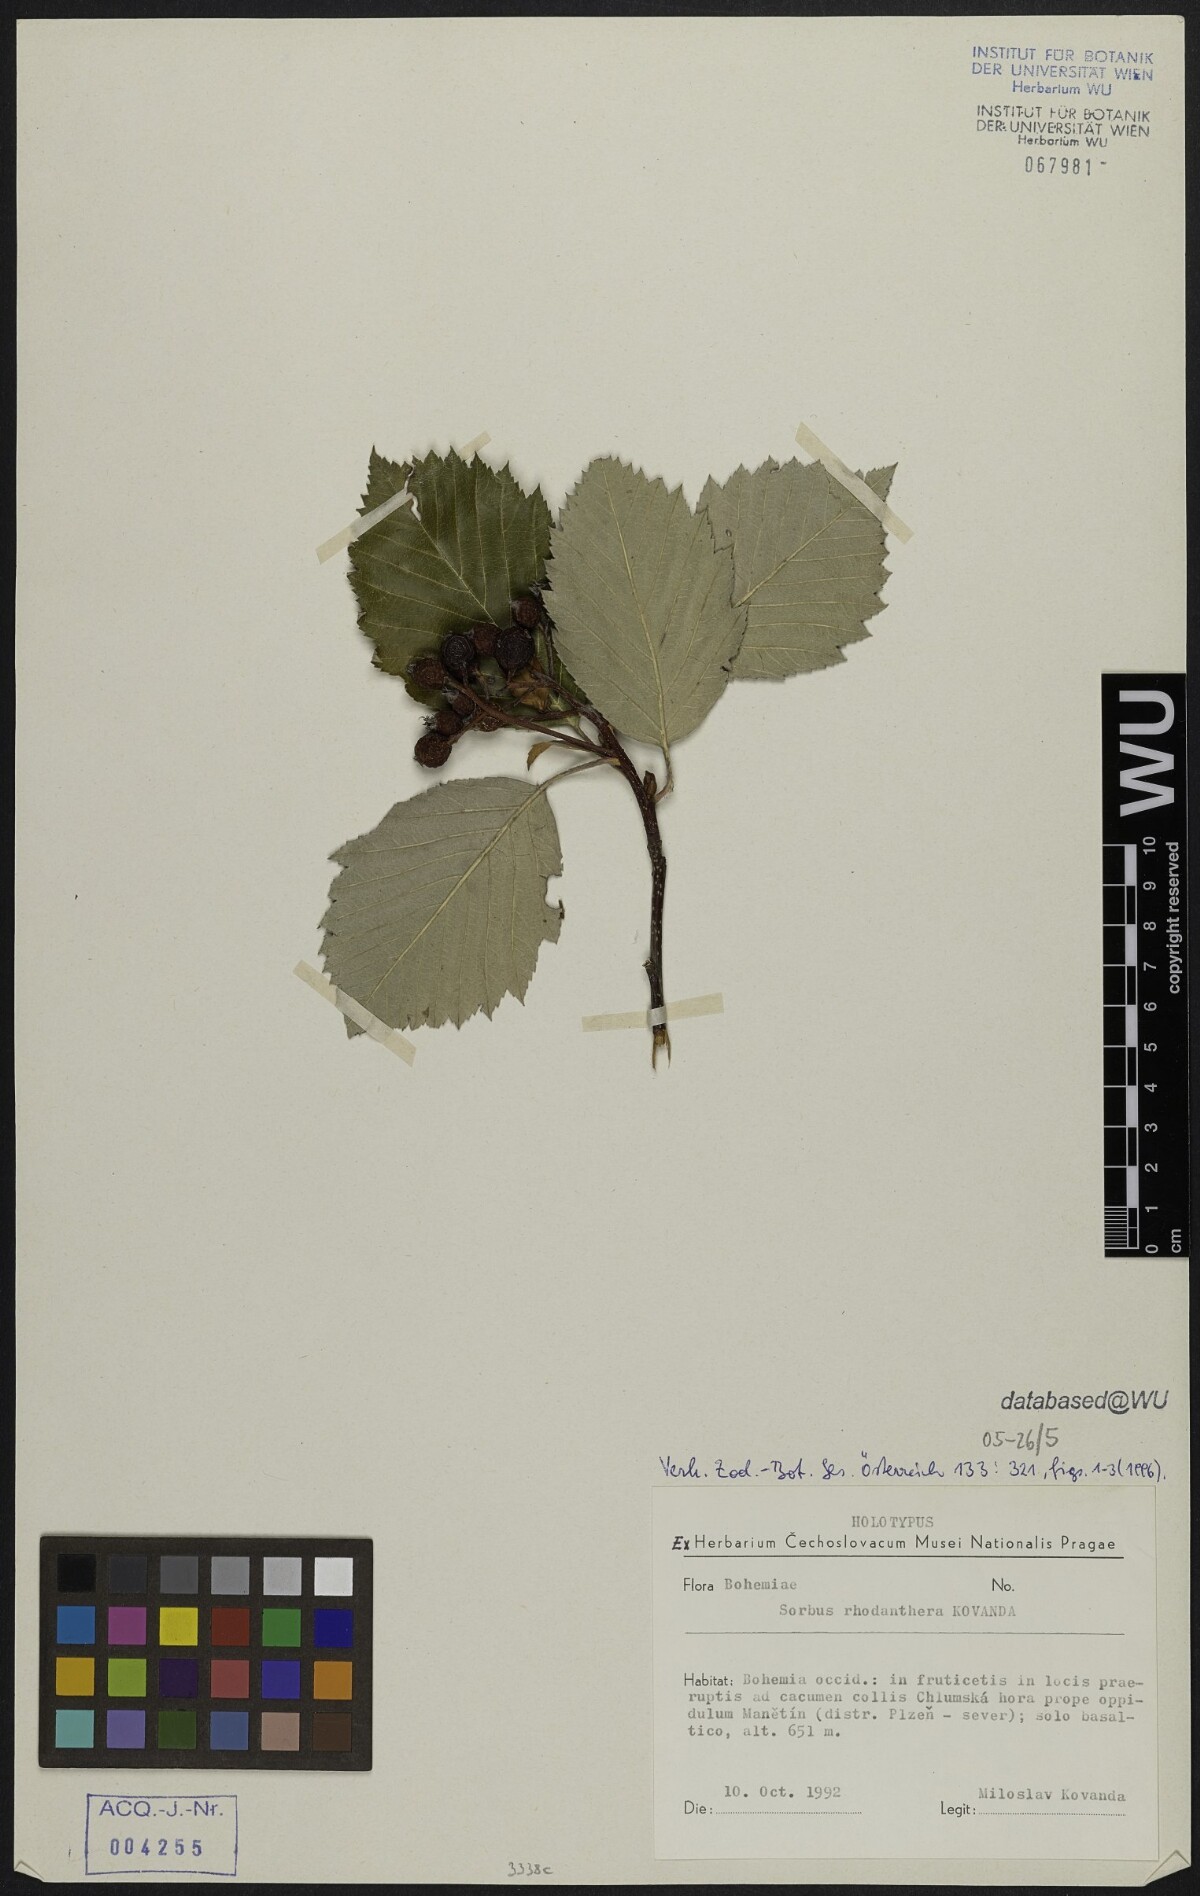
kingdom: Plantae
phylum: Tracheophyta
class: Magnoliopsida
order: Rosales
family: Rosaceae
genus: Karpatiosorbus
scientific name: Karpatiosorbus rhodanthera
